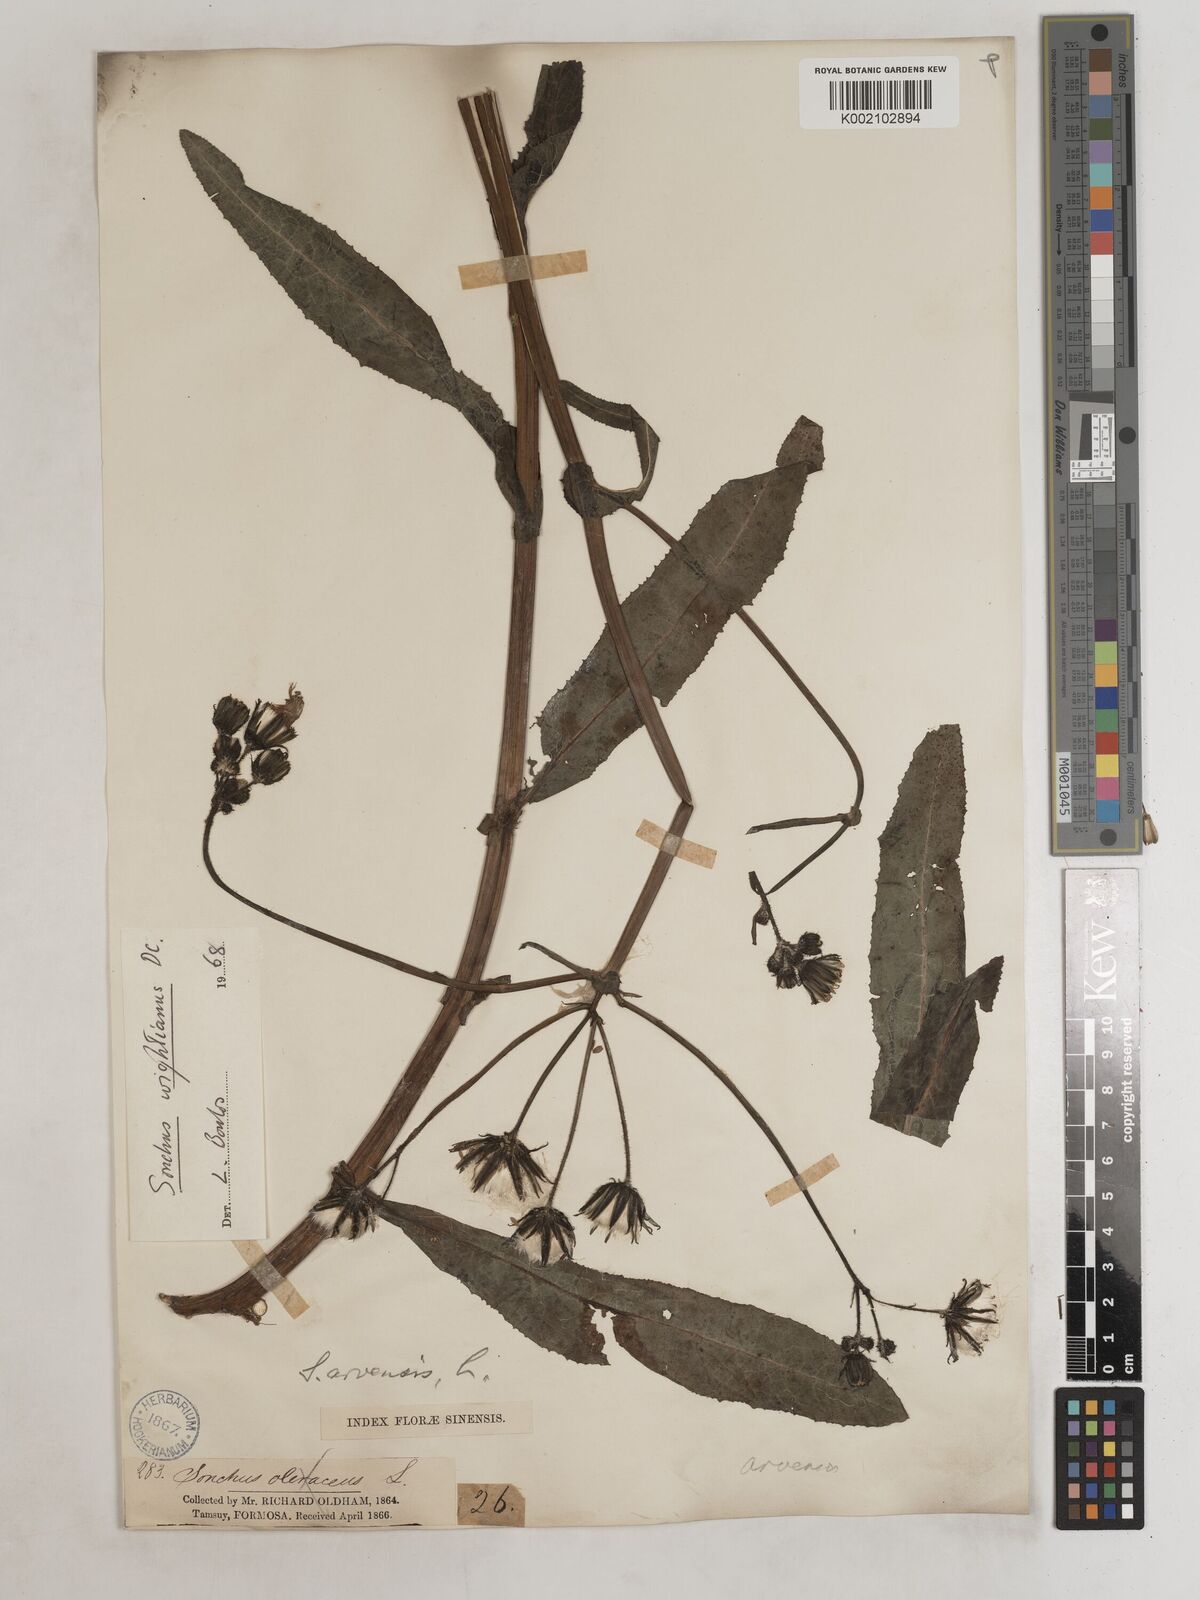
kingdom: Plantae
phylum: Tracheophyta
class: Magnoliopsida
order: Asterales
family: Asteraceae
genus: Sonchus
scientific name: Sonchus arvensis
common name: Perennial sow-thistle
